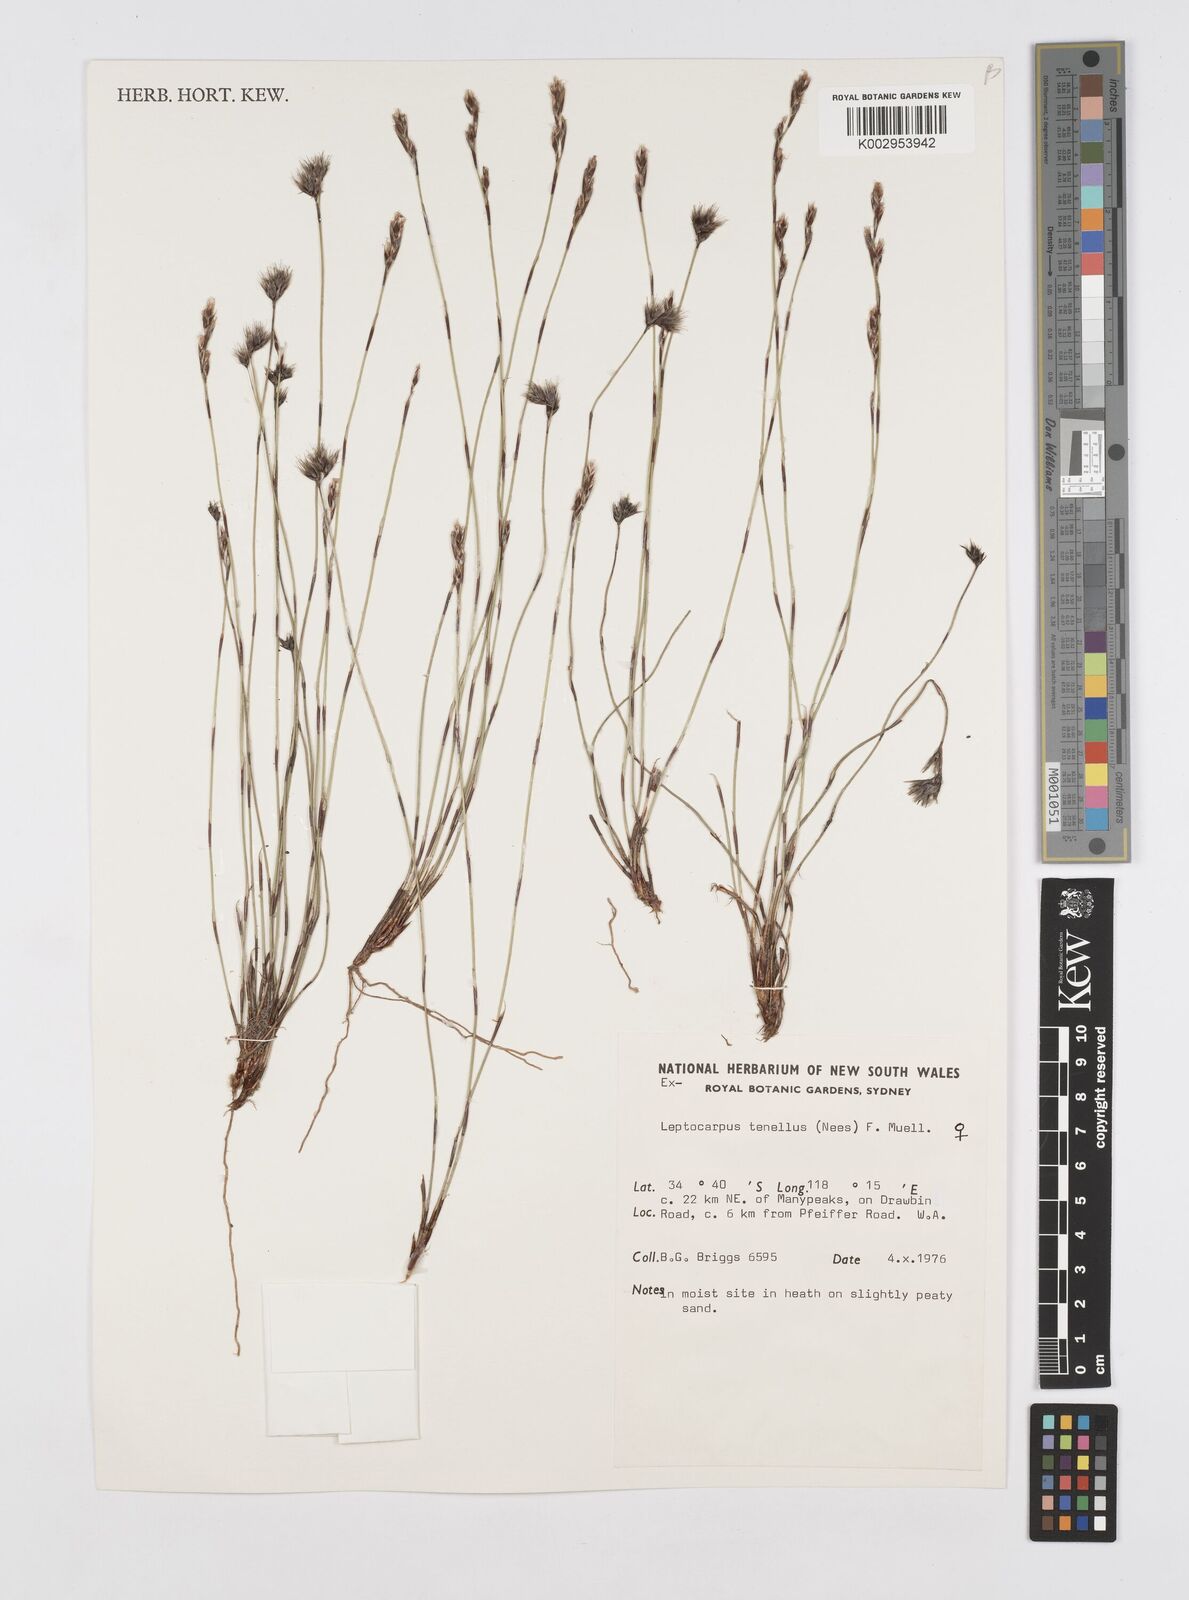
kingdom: Plantae
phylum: Tracheophyta
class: Liliopsida
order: Poales
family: Restionaceae
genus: Chaetanthus
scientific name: Chaetanthus tenellus
